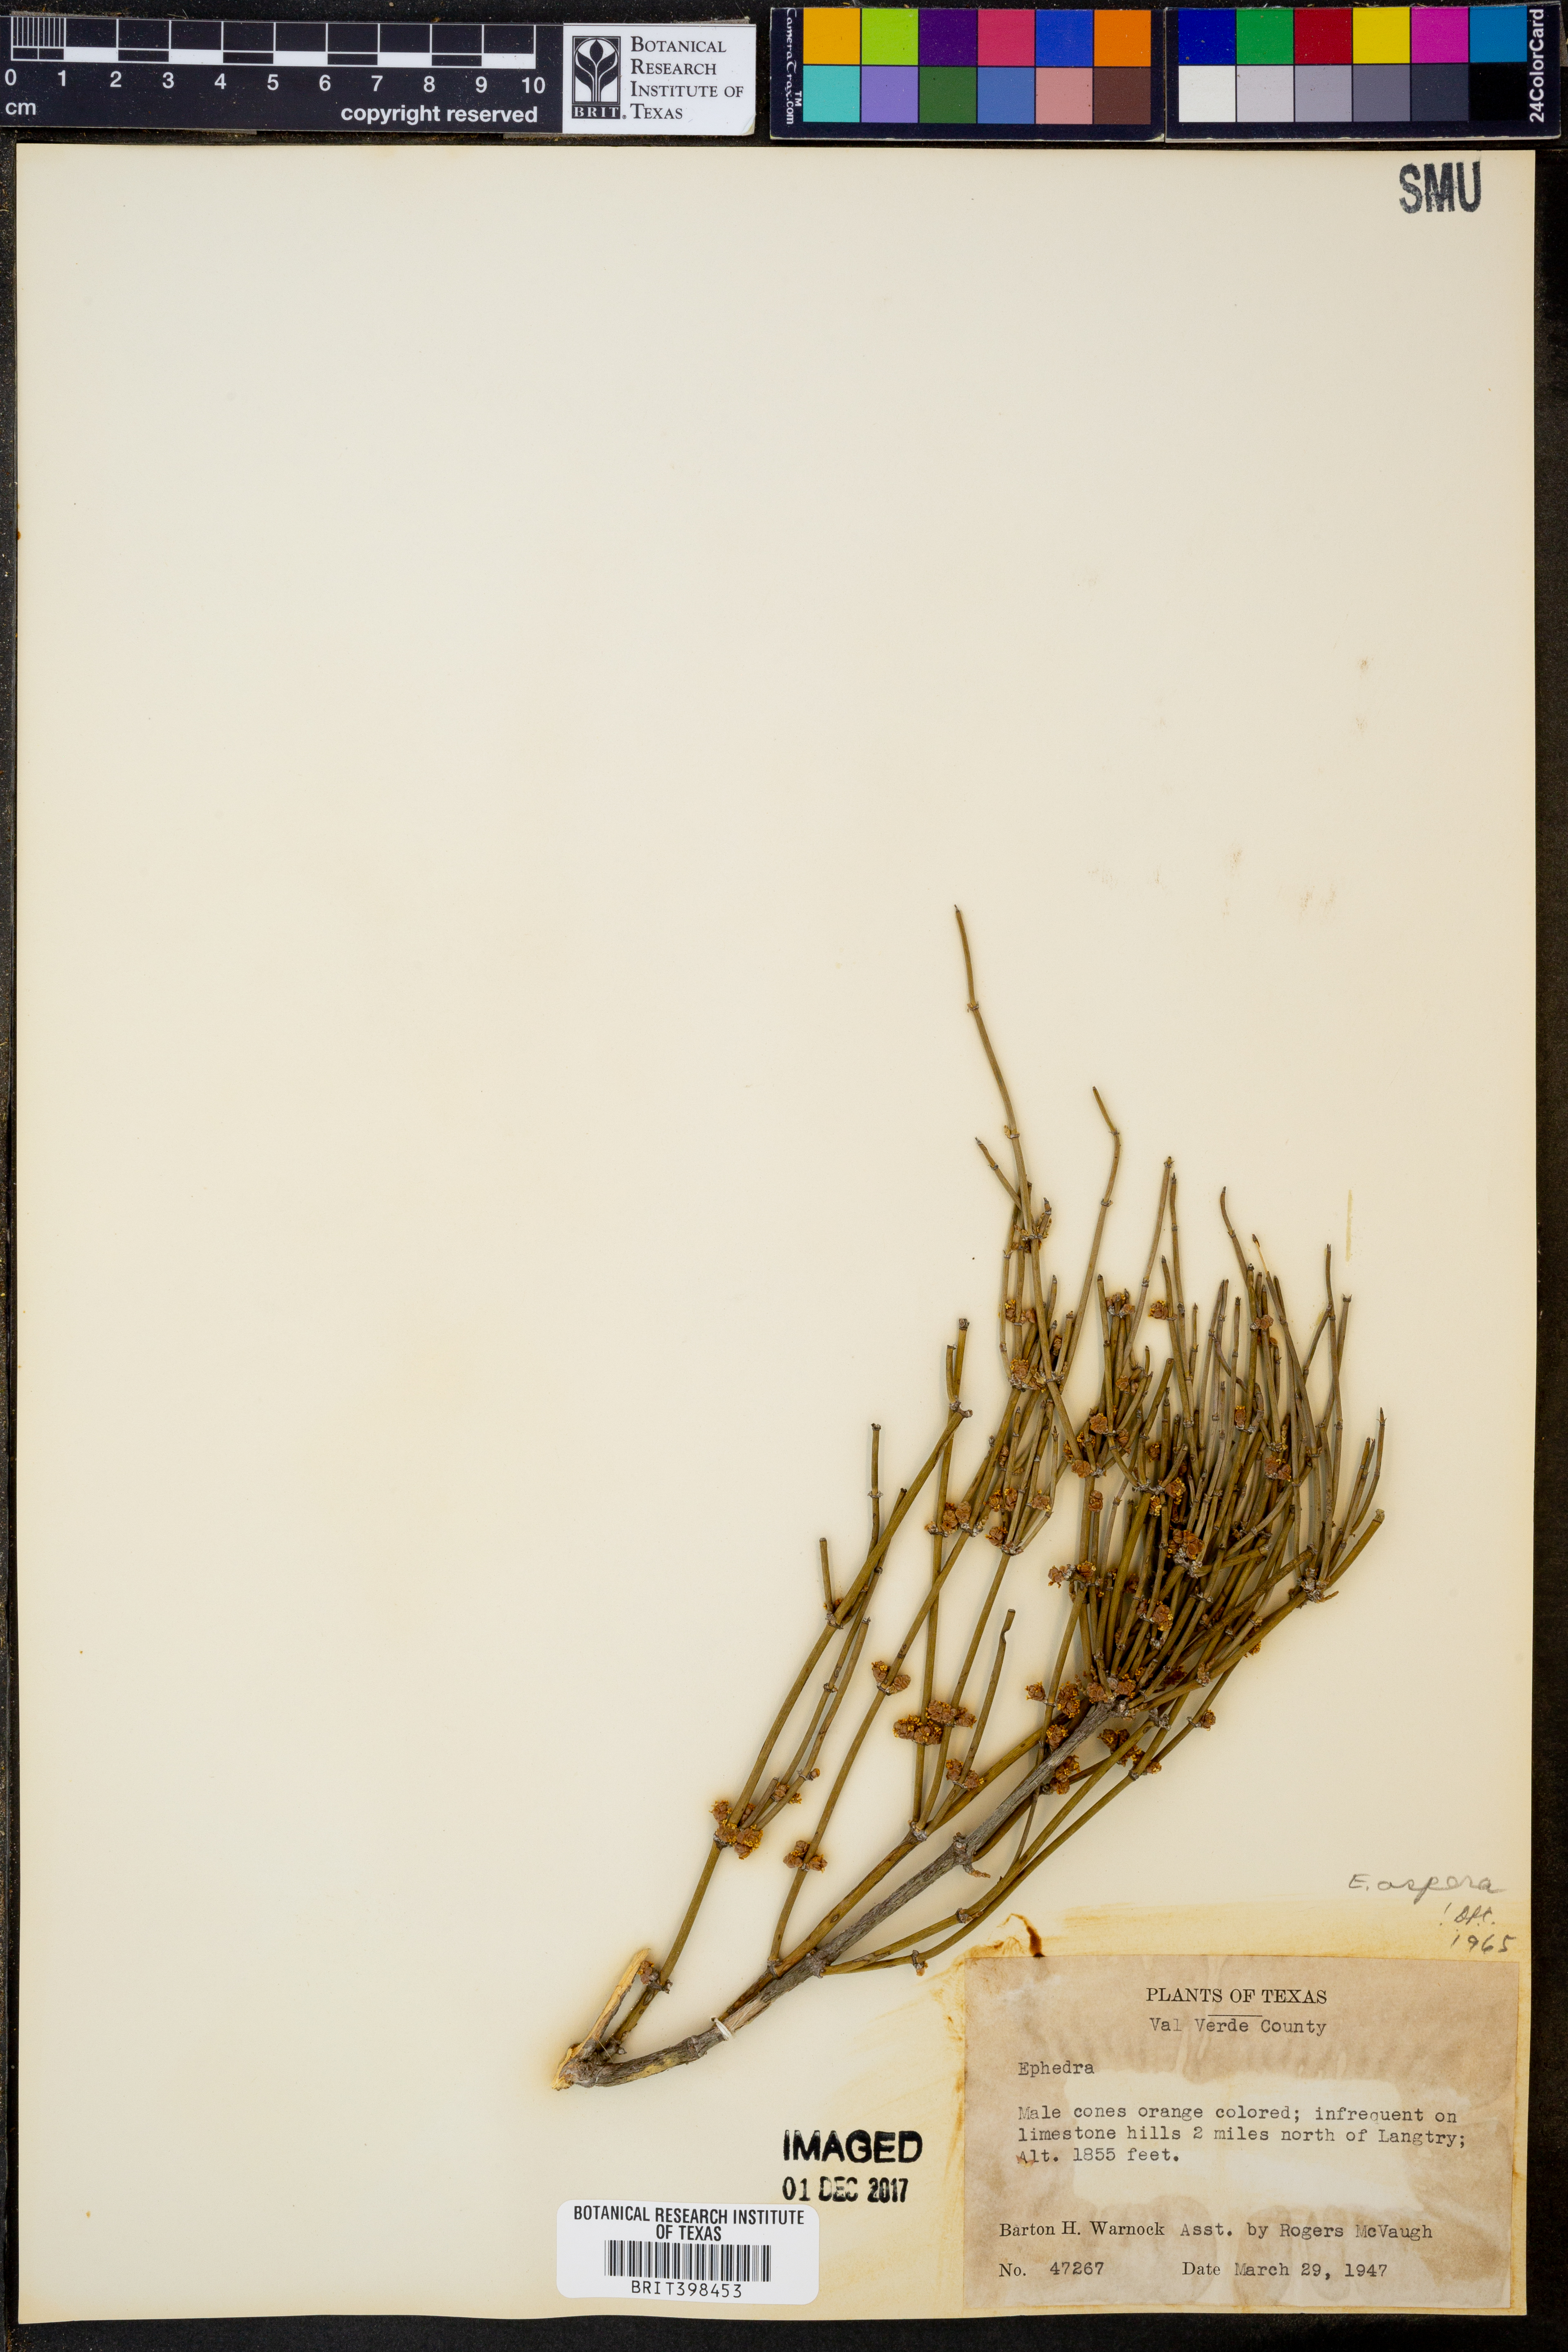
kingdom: Plantae
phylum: Tracheophyta
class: Gnetopsida
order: Ephedrales
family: Ephedraceae
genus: Ephedra
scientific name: Ephedra aspera
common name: Boundary ephedra
